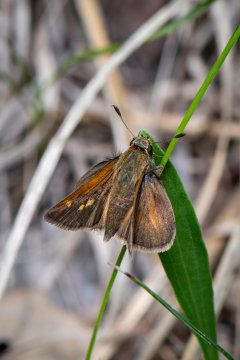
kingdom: Animalia
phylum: Arthropoda
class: Insecta
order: Lepidoptera
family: Hesperiidae
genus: Polites
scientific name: Polites themistocles
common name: Tawny-edged Skipper
